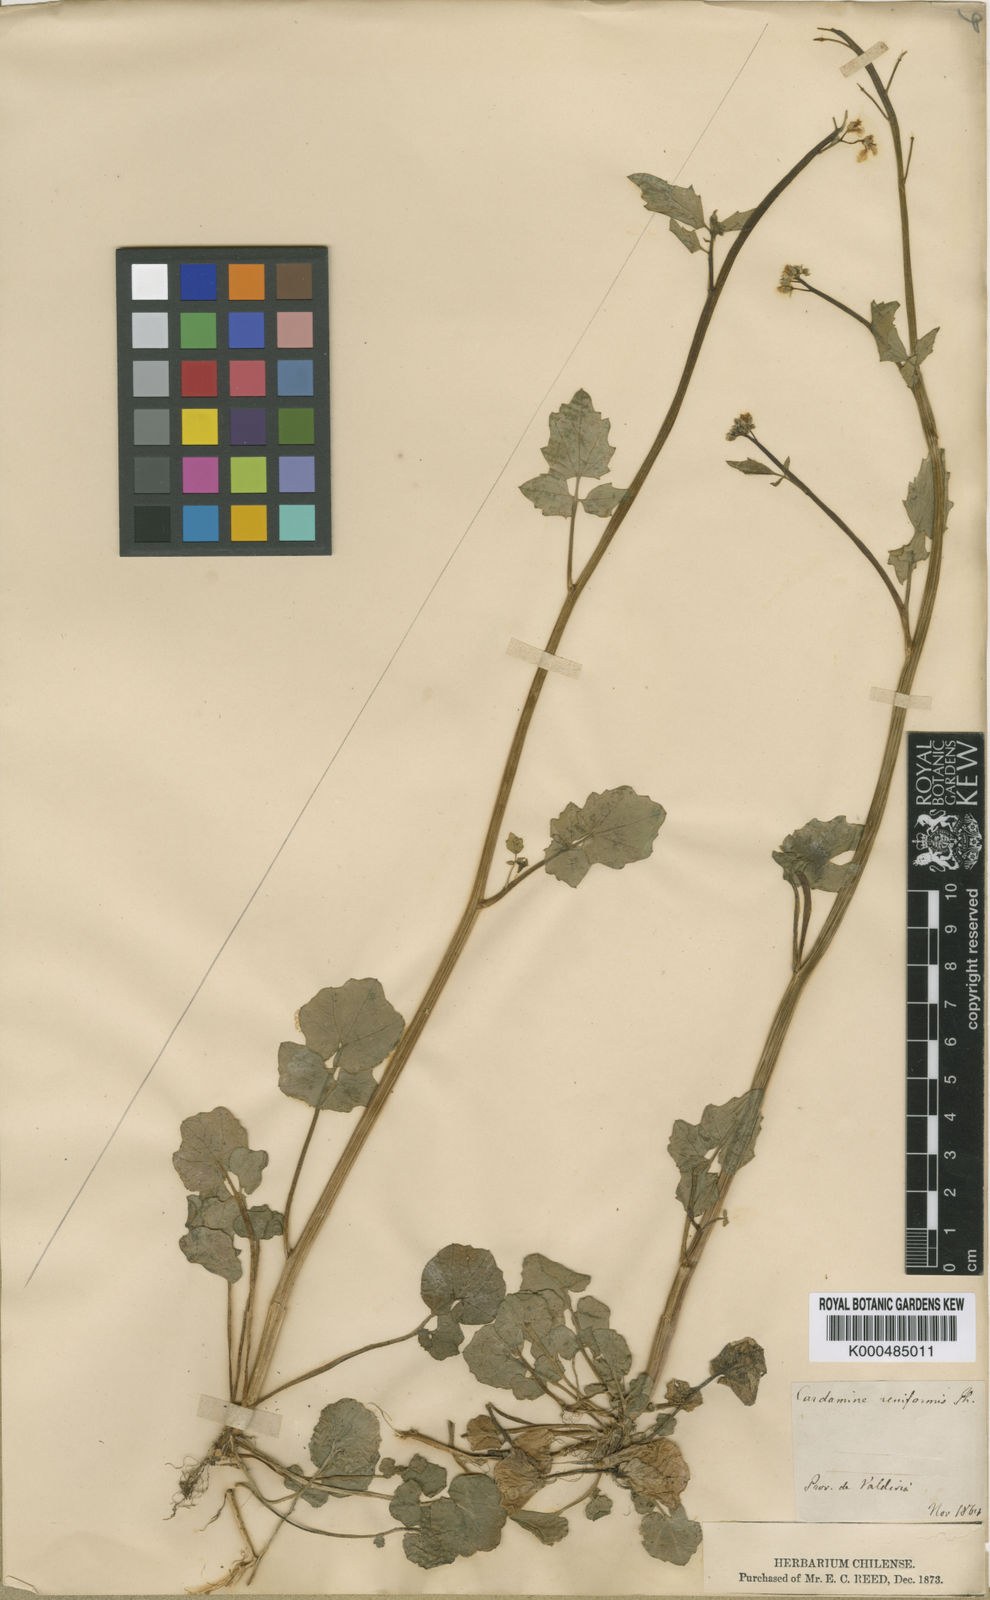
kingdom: Plantae
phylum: Tracheophyta
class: Magnoliopsida
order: Brassicales
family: Brassicaceae
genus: Cardamine
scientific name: Cardamine rostrata
